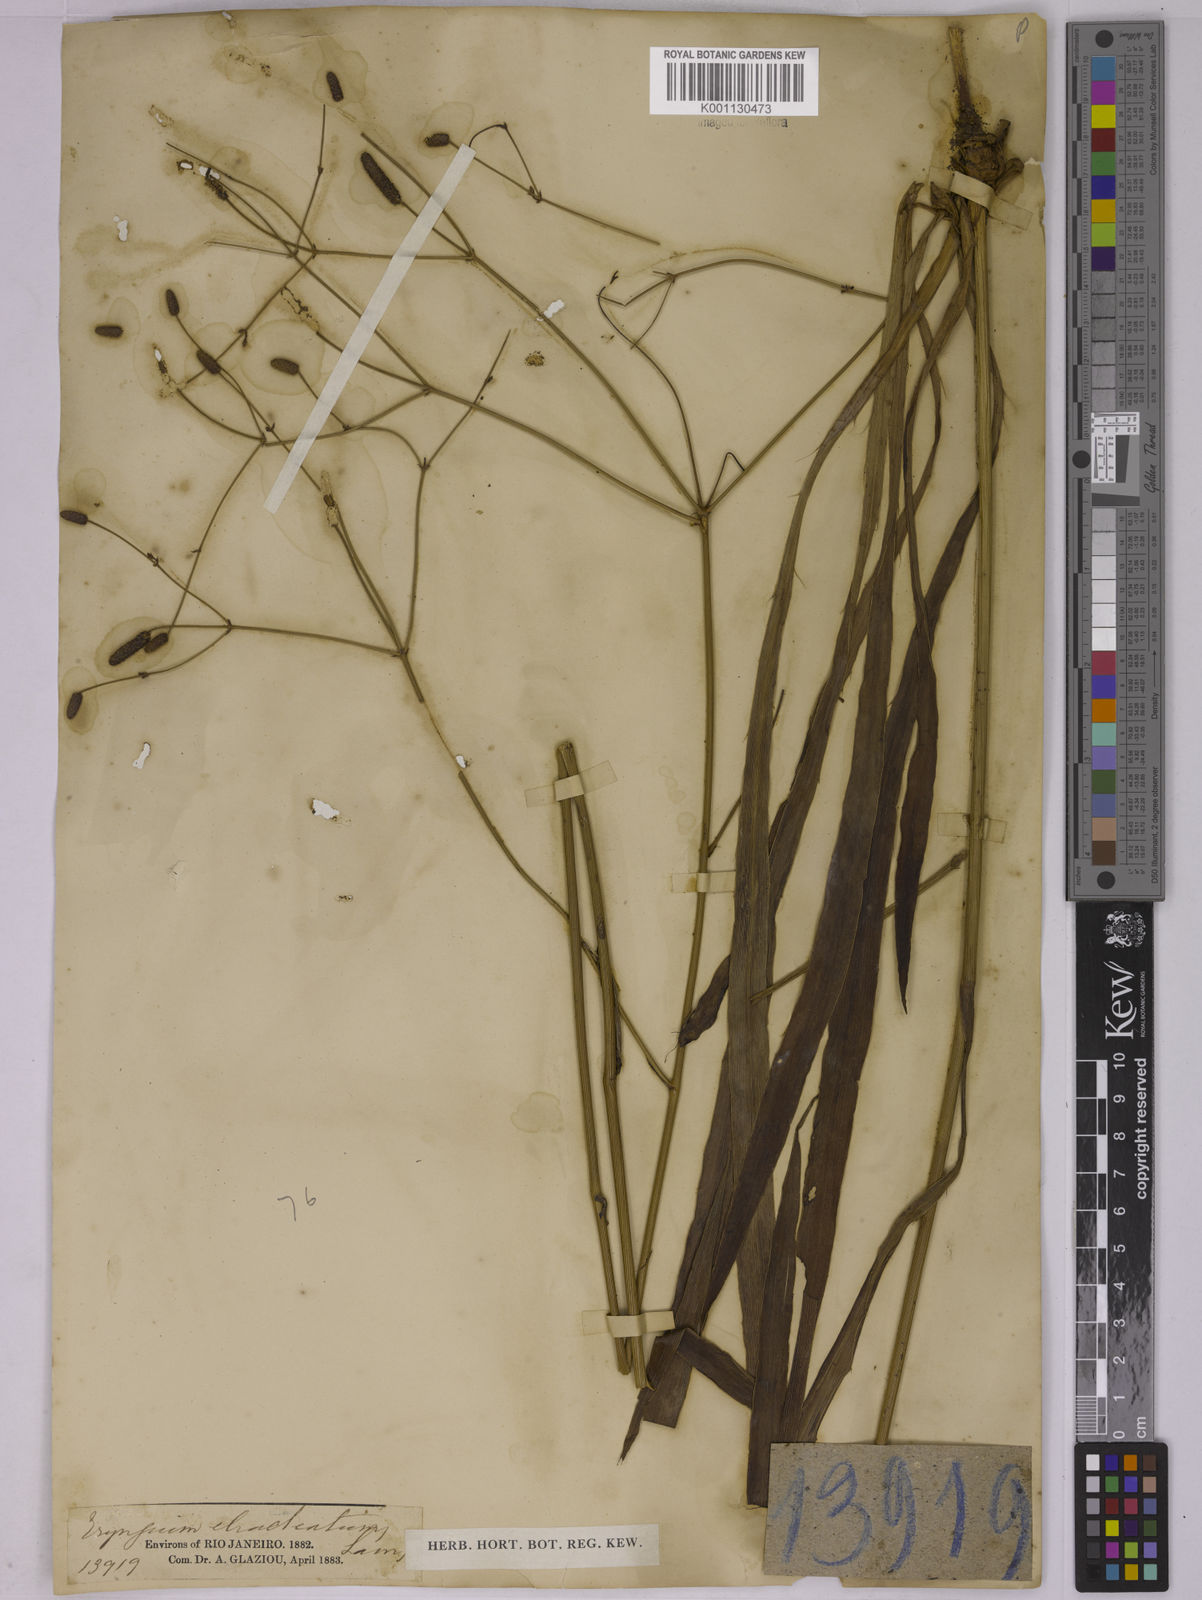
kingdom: Plantae
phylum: Tracheophyta
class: Magnoliopsida
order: Apiales
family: Apiaceae
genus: Eryngium
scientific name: Eryngium ebracteatum
